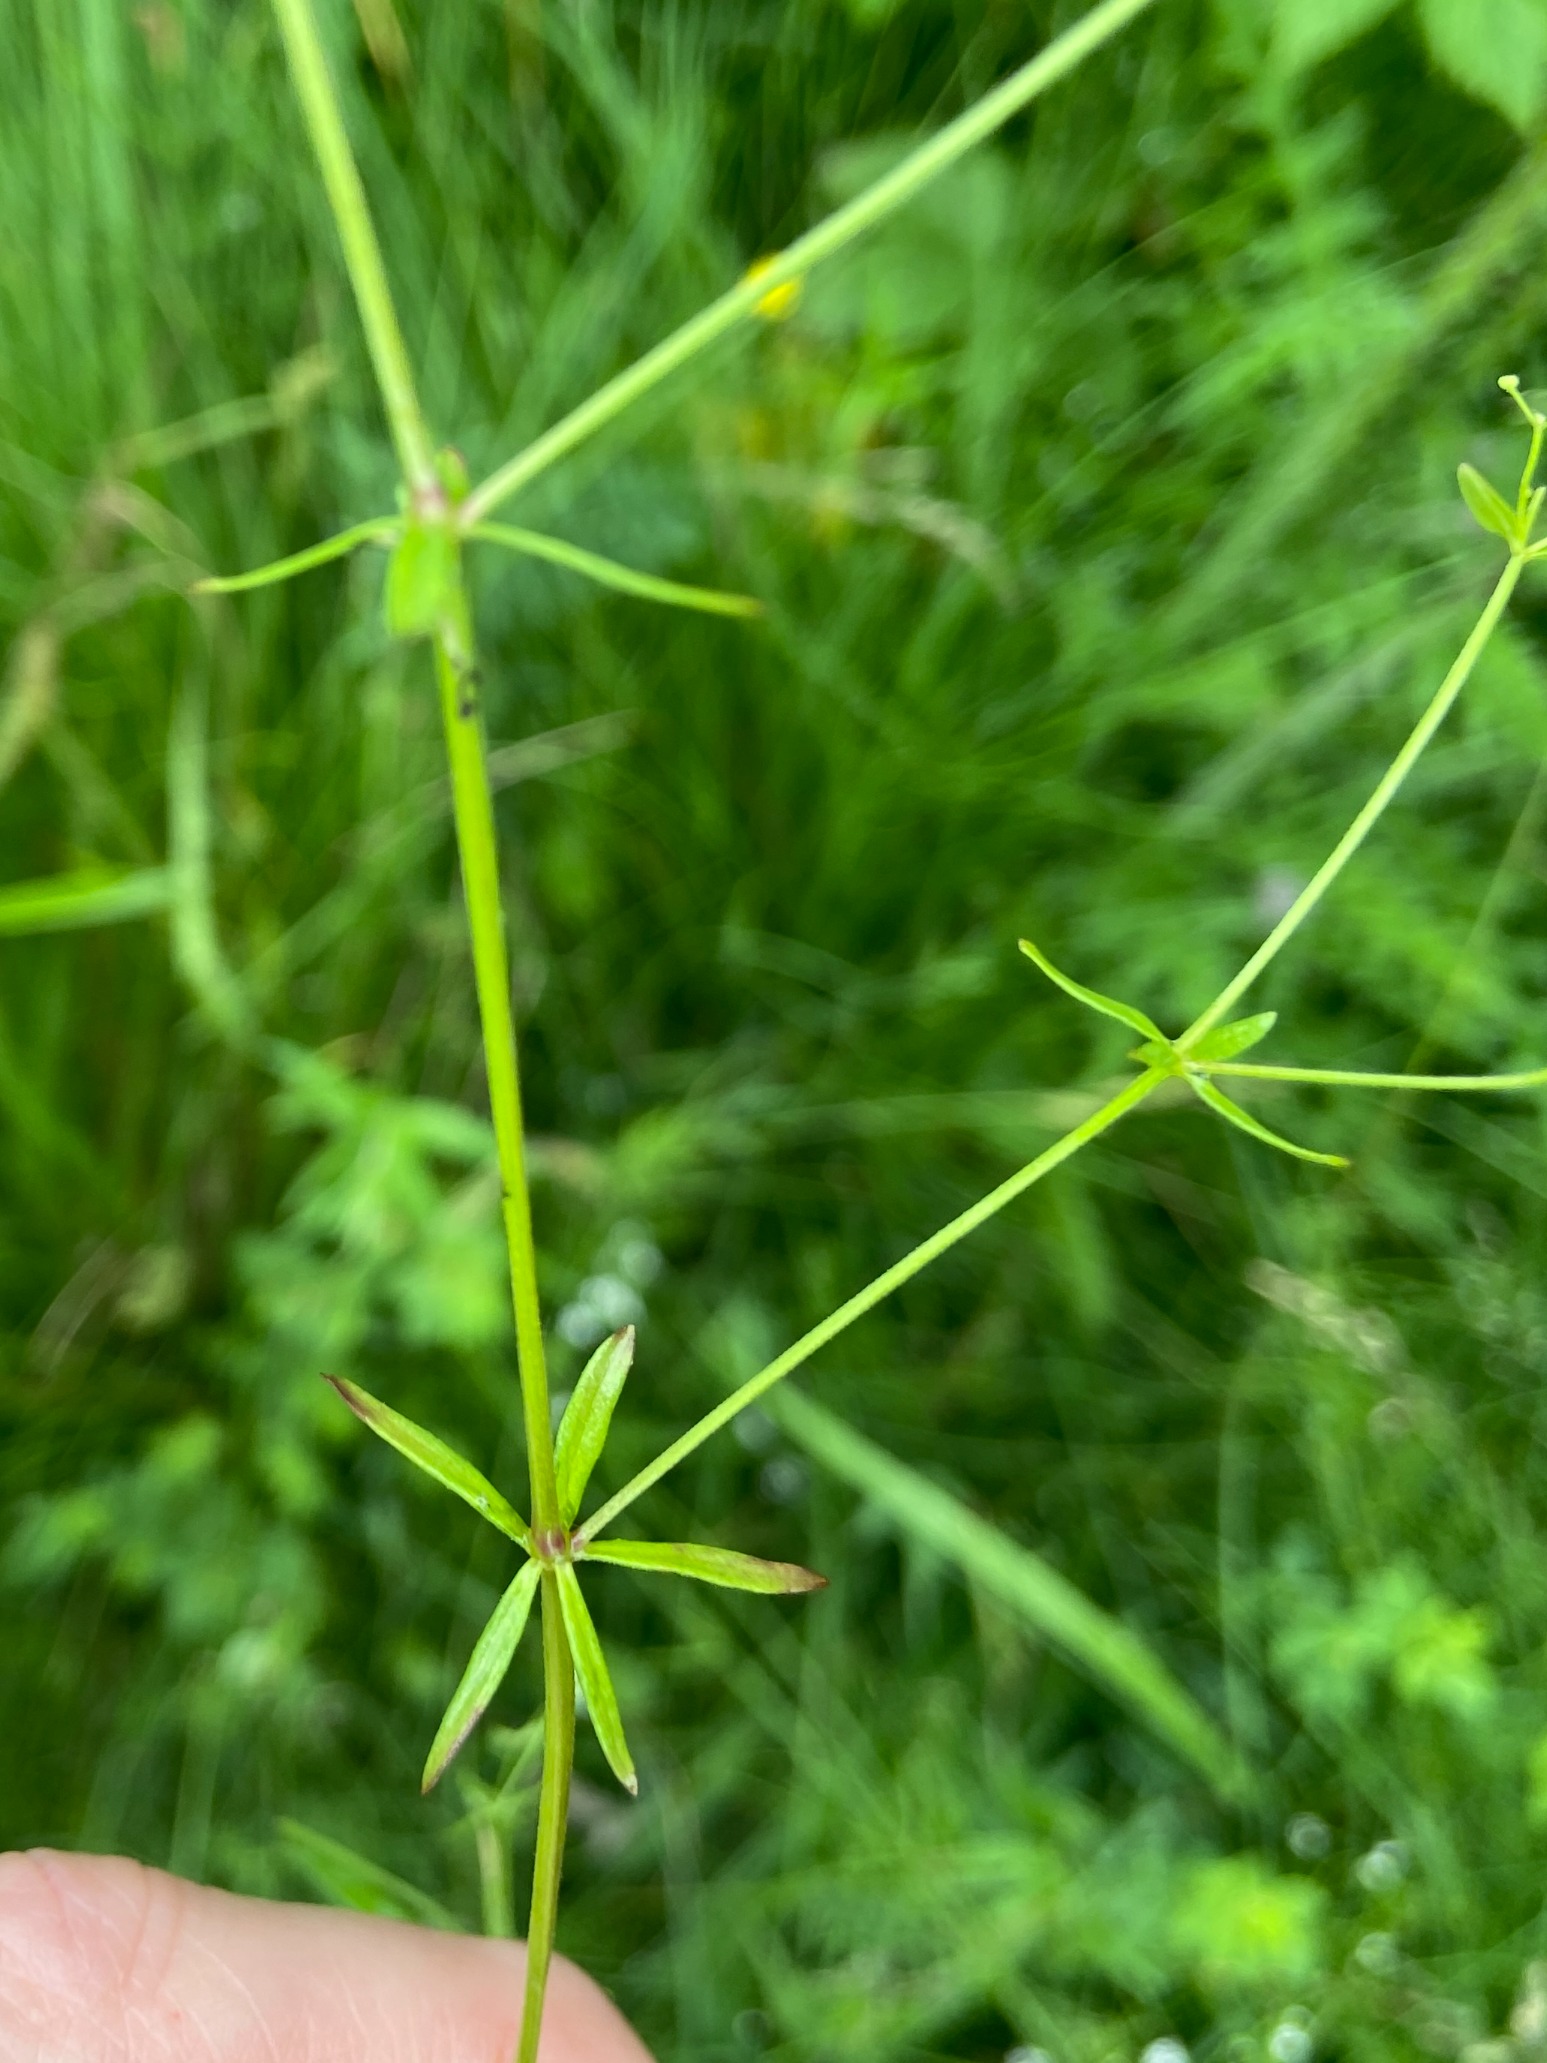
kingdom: Plantae
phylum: Tracheophyta
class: Magnoliopsida
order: Gentianales
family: Rubiaceae
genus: Galium
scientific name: Galium palustre
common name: Kær-snerre
